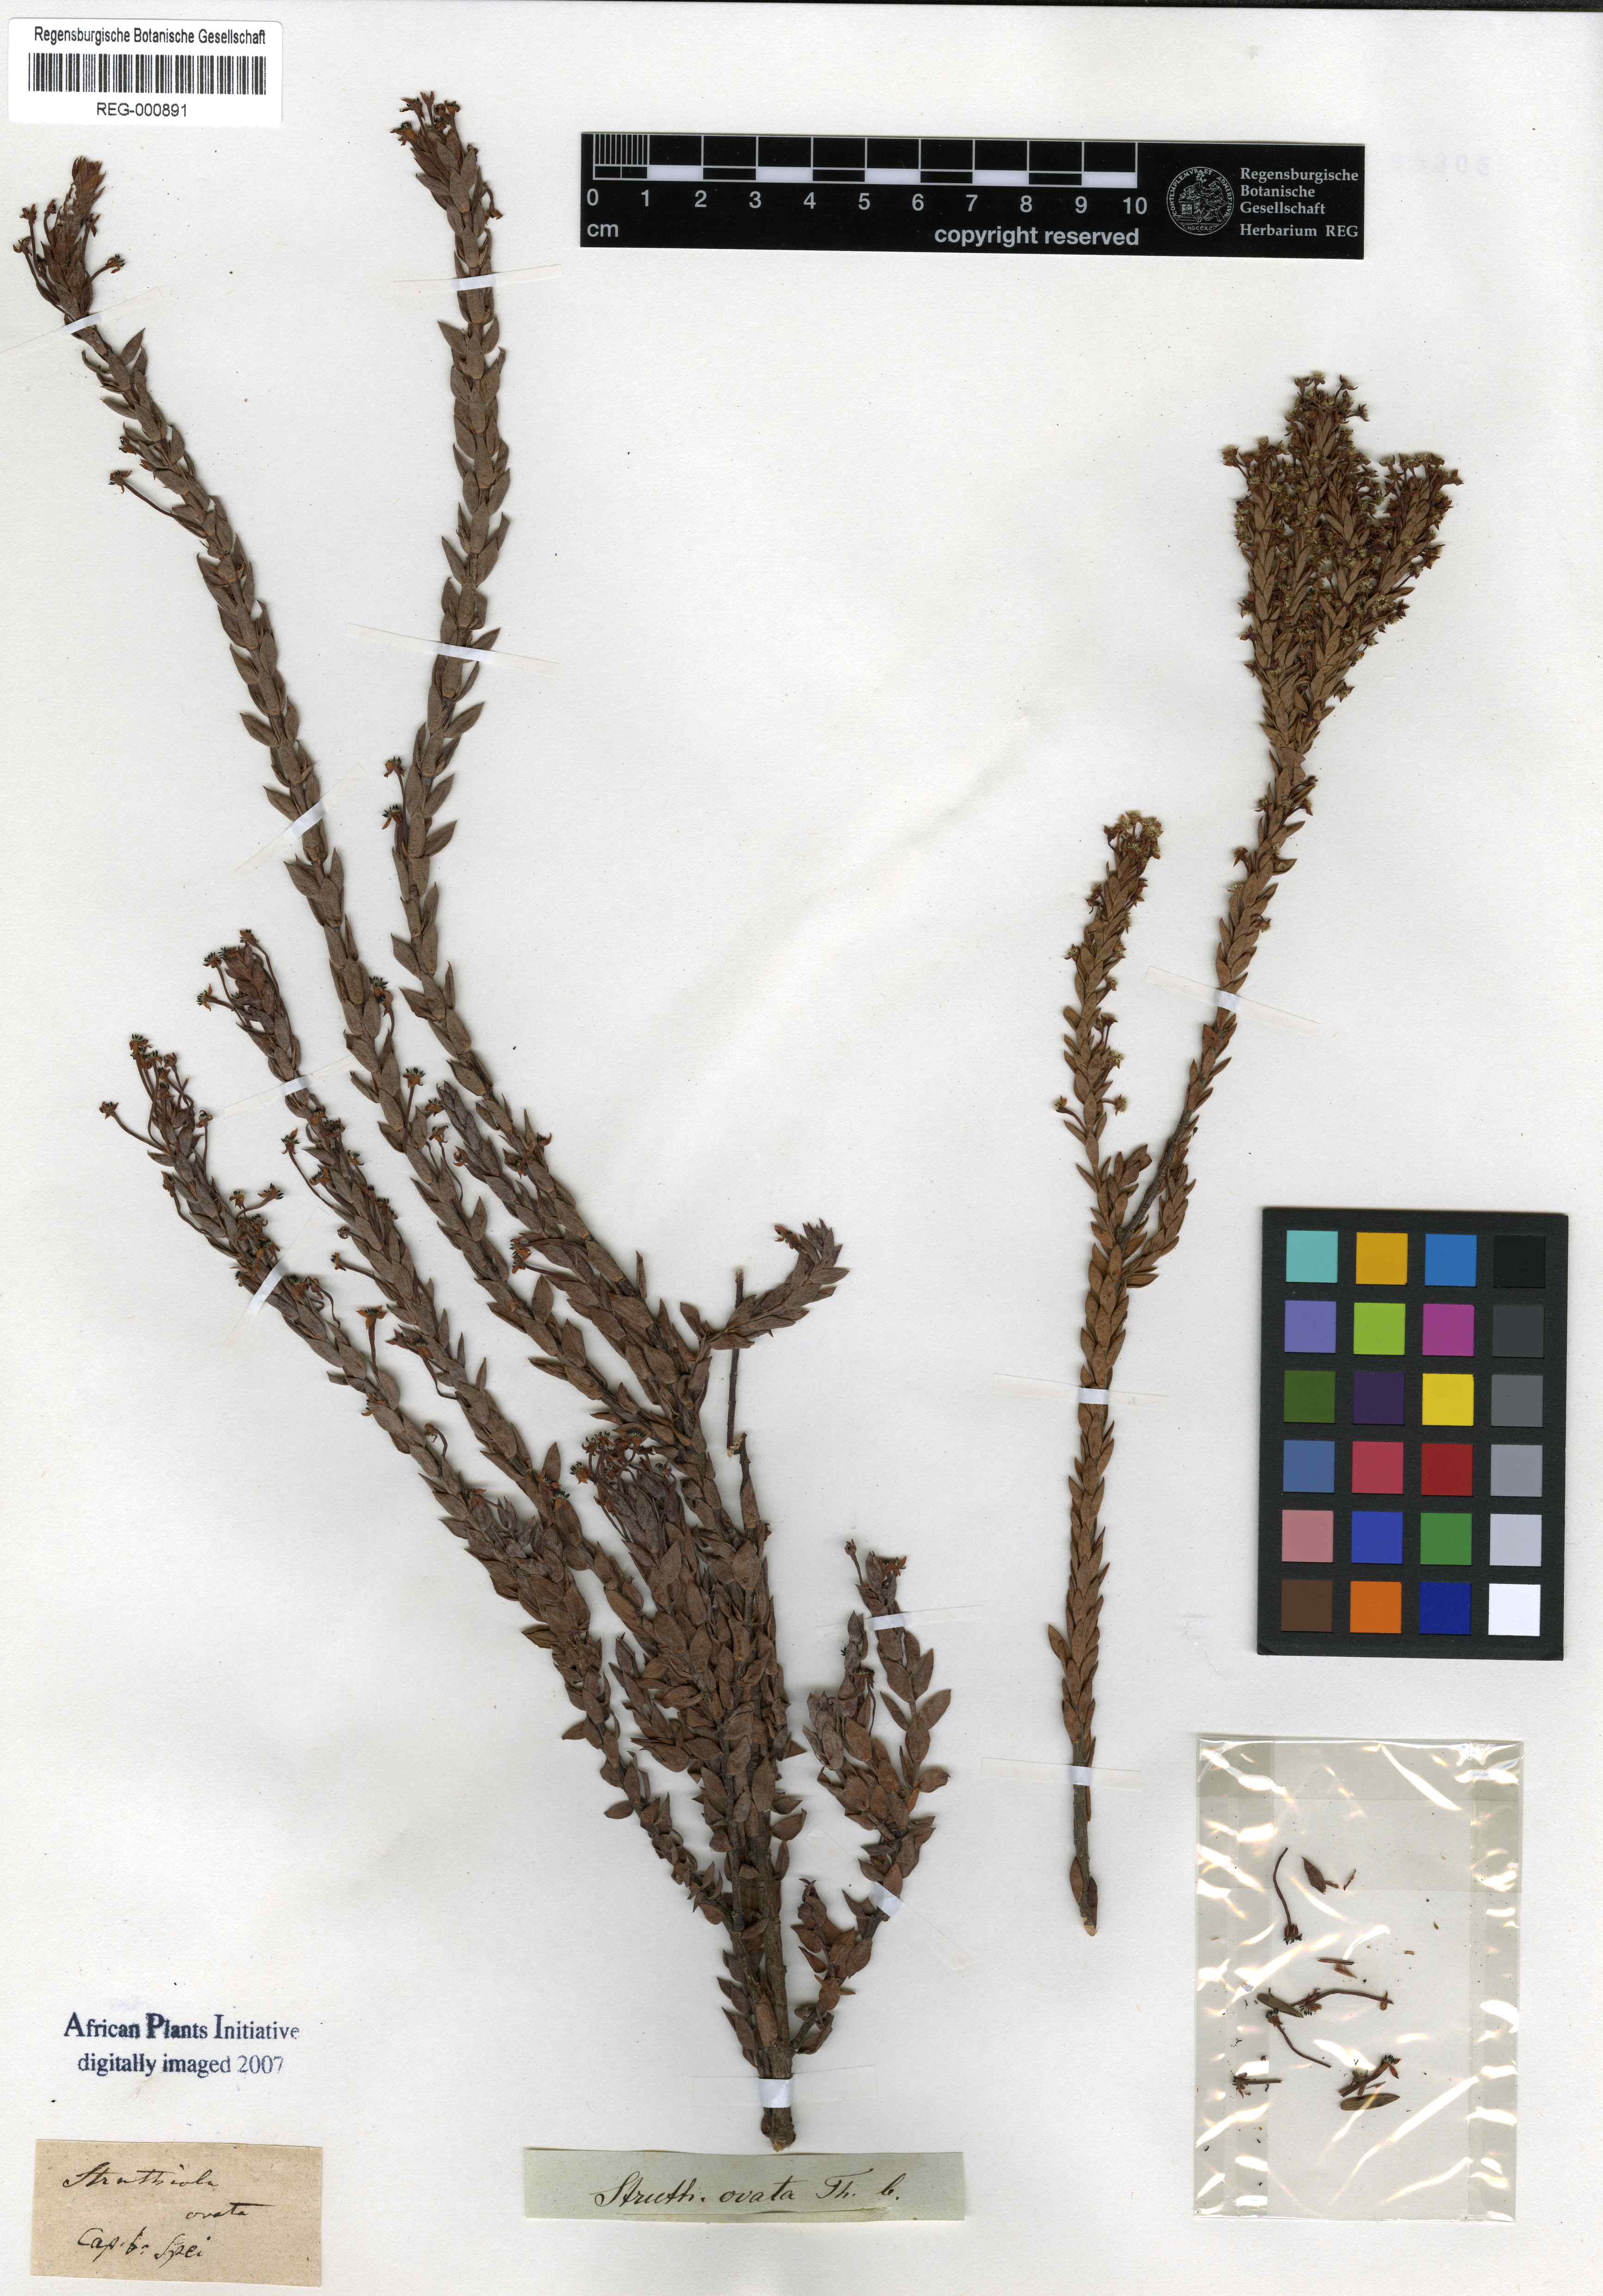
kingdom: Plantae
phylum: Tracheophyta
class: Magnoliopsida
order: Malvales
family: Thymelaeaceae
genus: Struthiola
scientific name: Struthiola myrsinites
